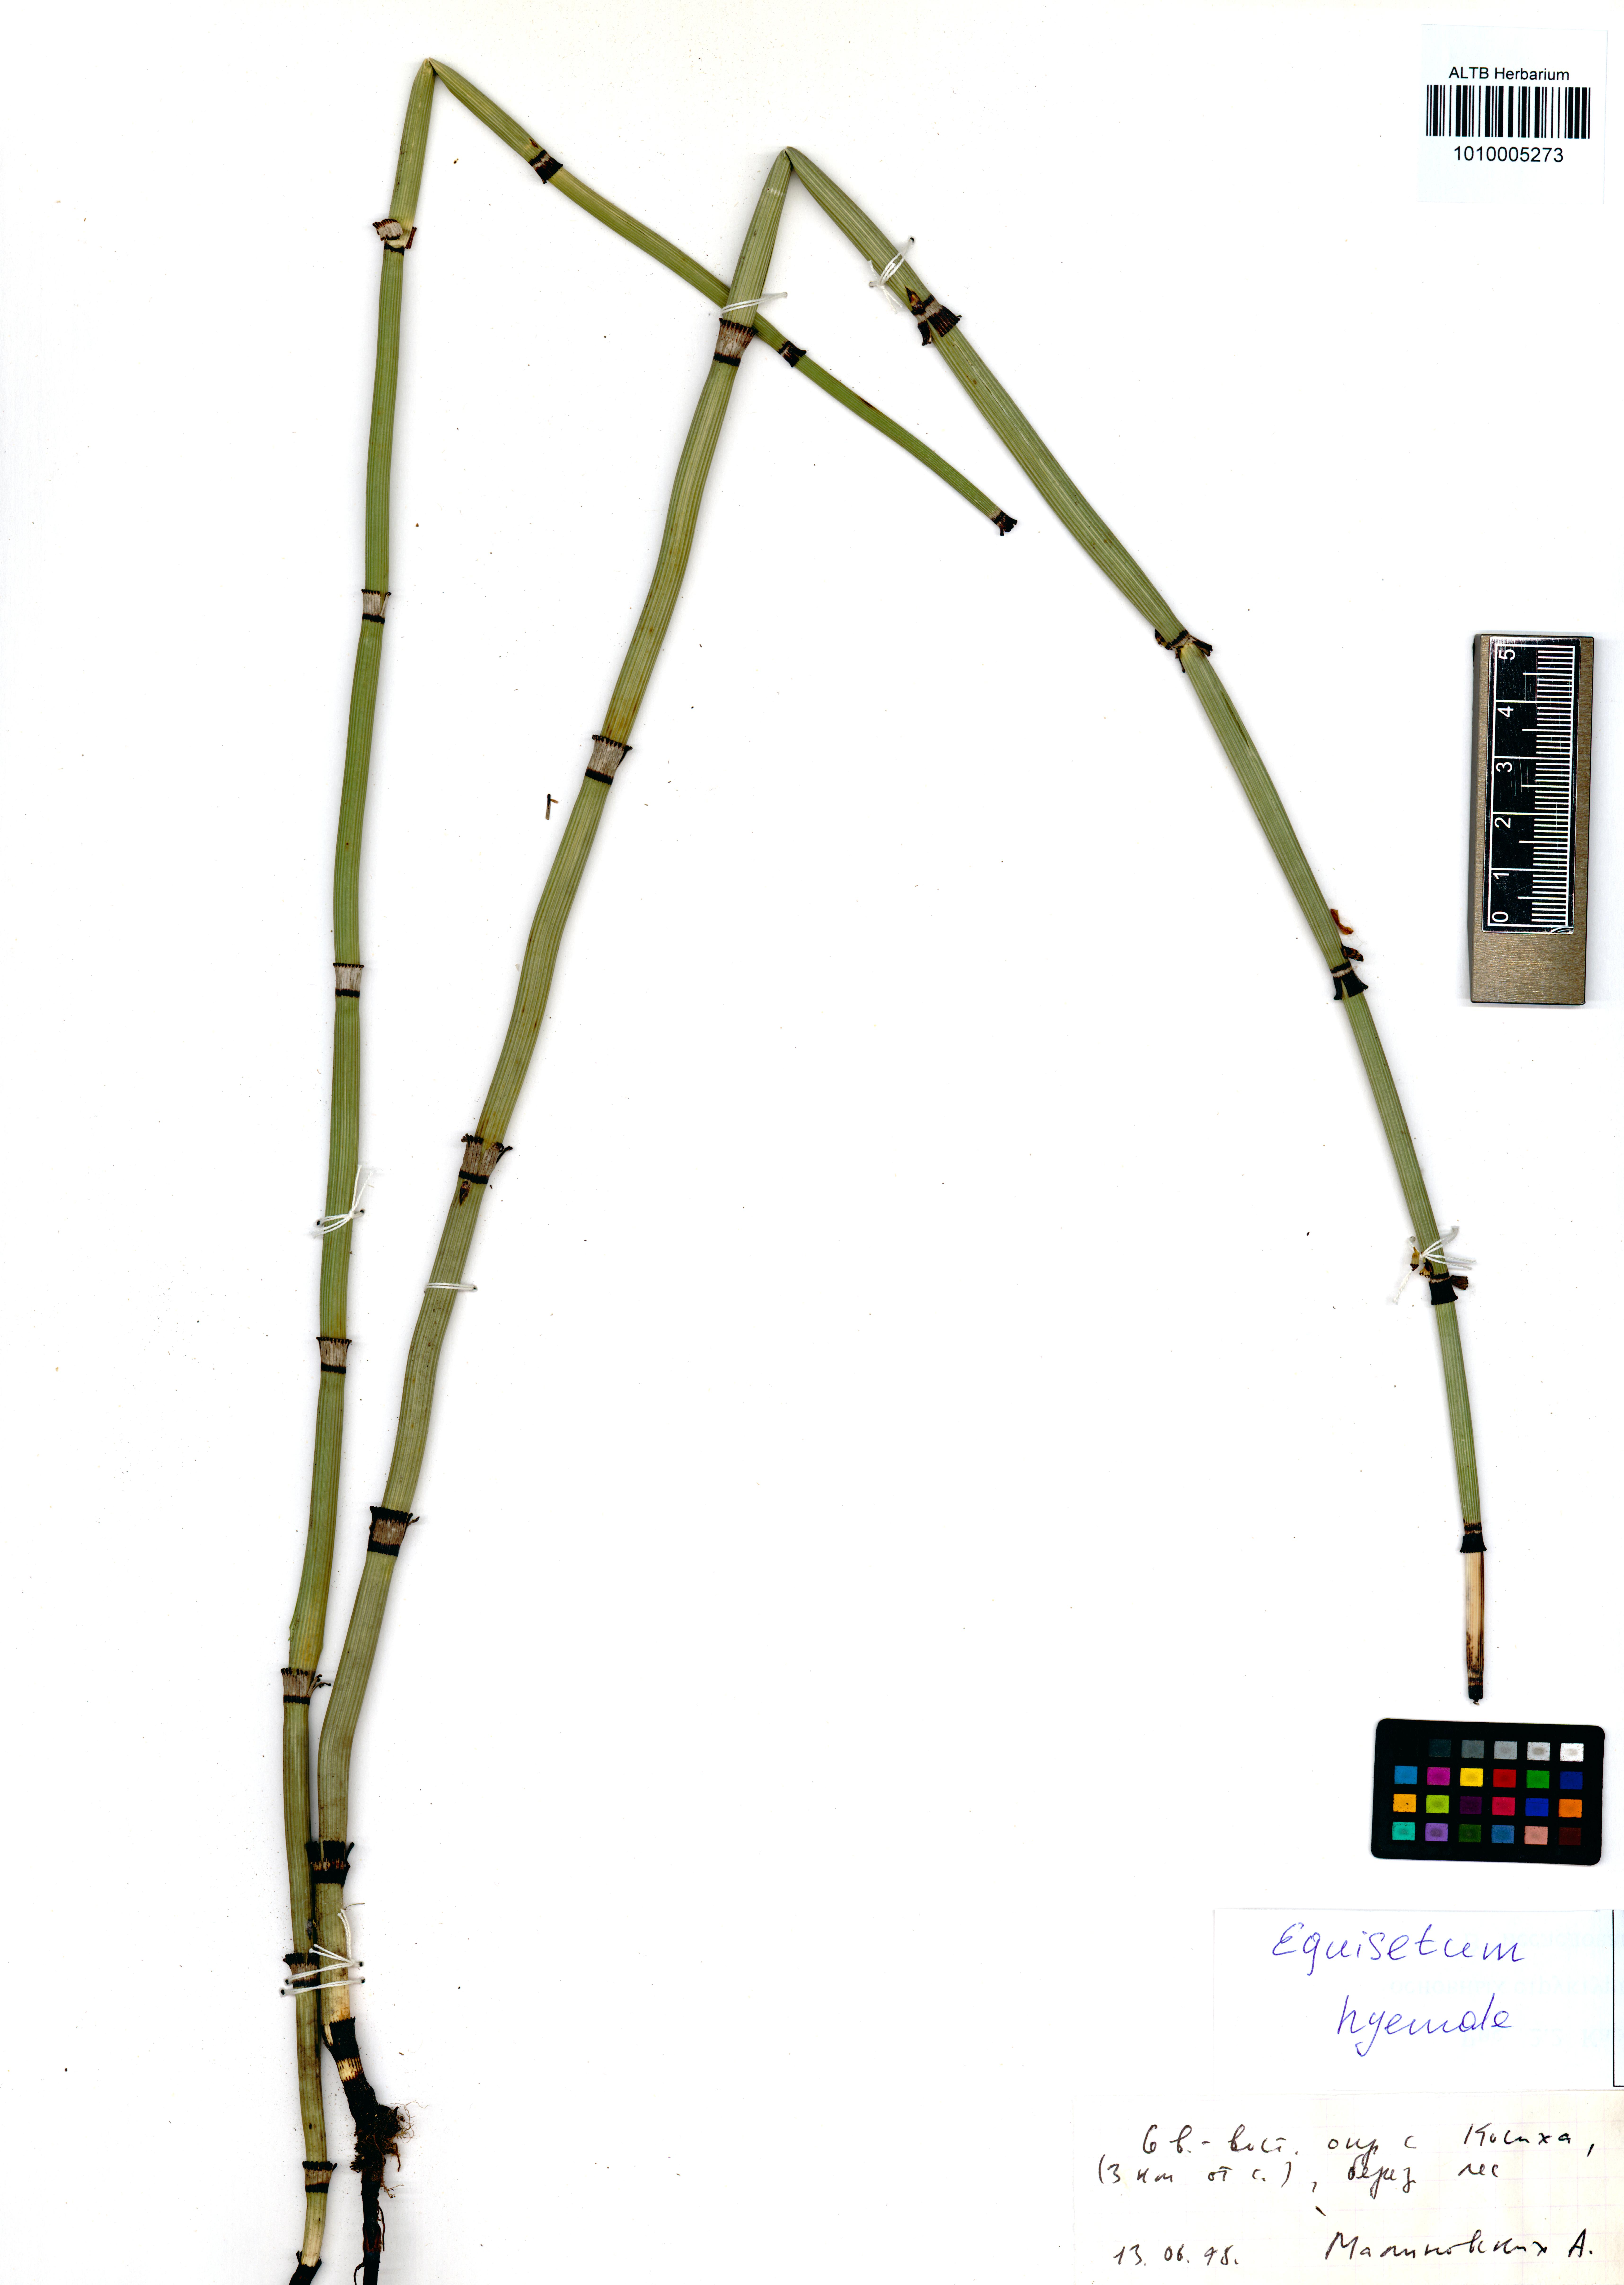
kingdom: Plantae
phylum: Tracheophyta
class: Polypodiopsida
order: Equisetales
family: Equisetaceae
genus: Equisetum
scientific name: Equisetum hyemale
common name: Rough horsetail
